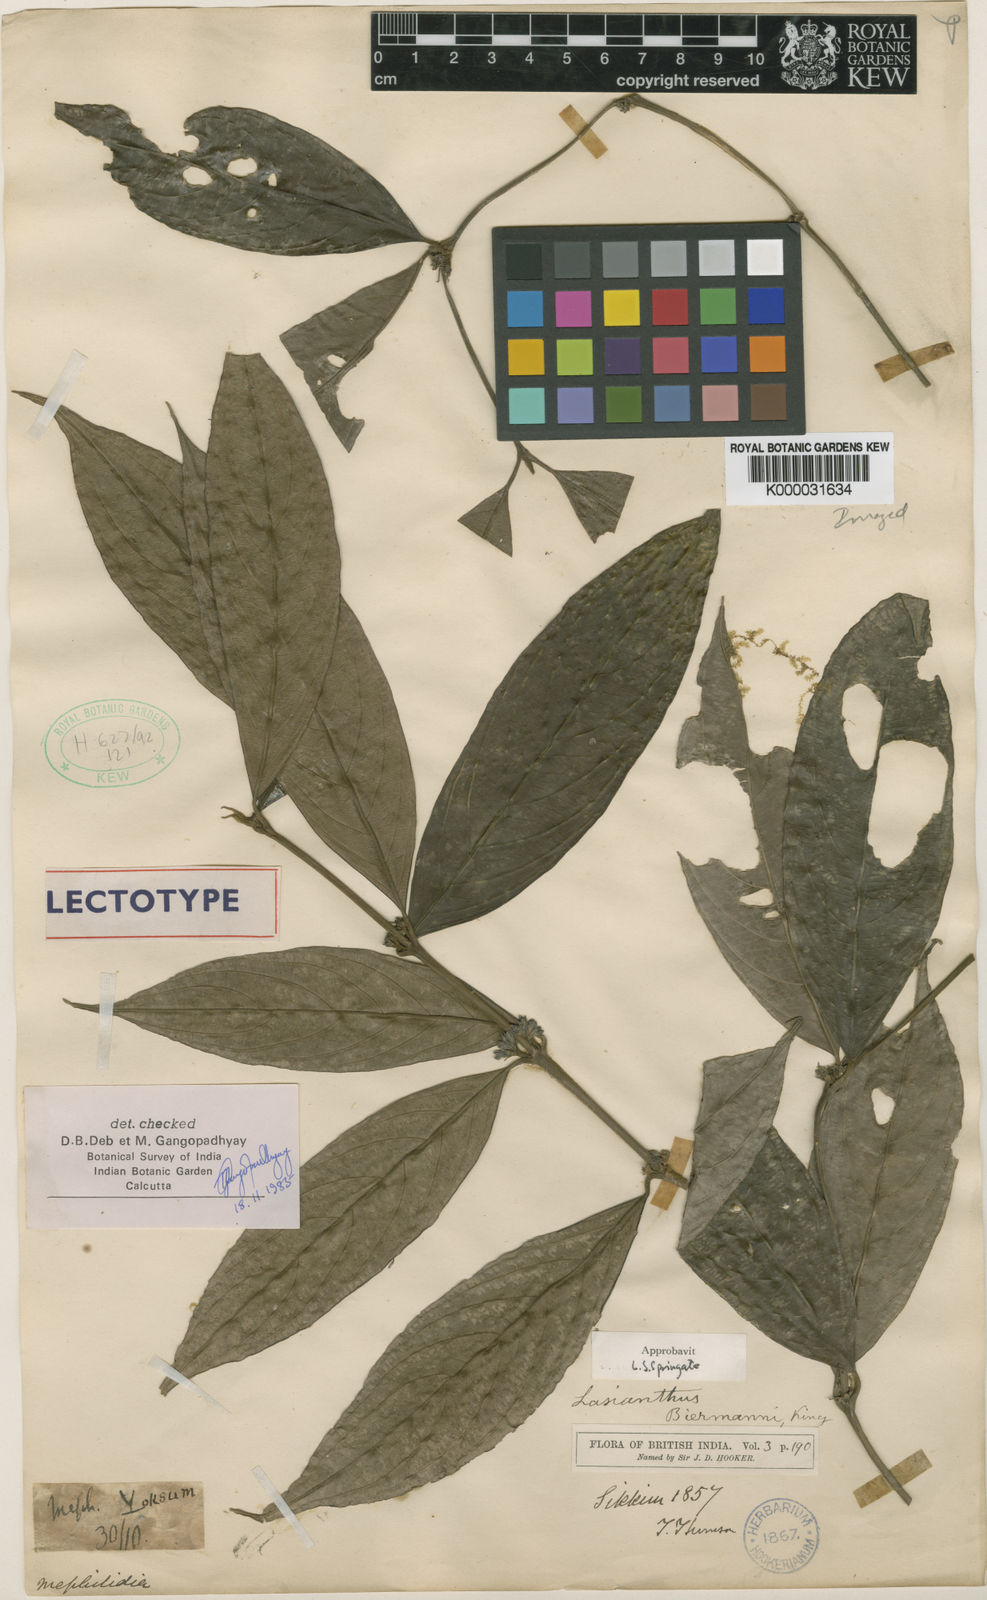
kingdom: Plantae
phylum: Tracheophyta
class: Magnoliopsida
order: Gentianales
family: Rubiaceae
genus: Lasianthus
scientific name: Lasianthus biermannii
